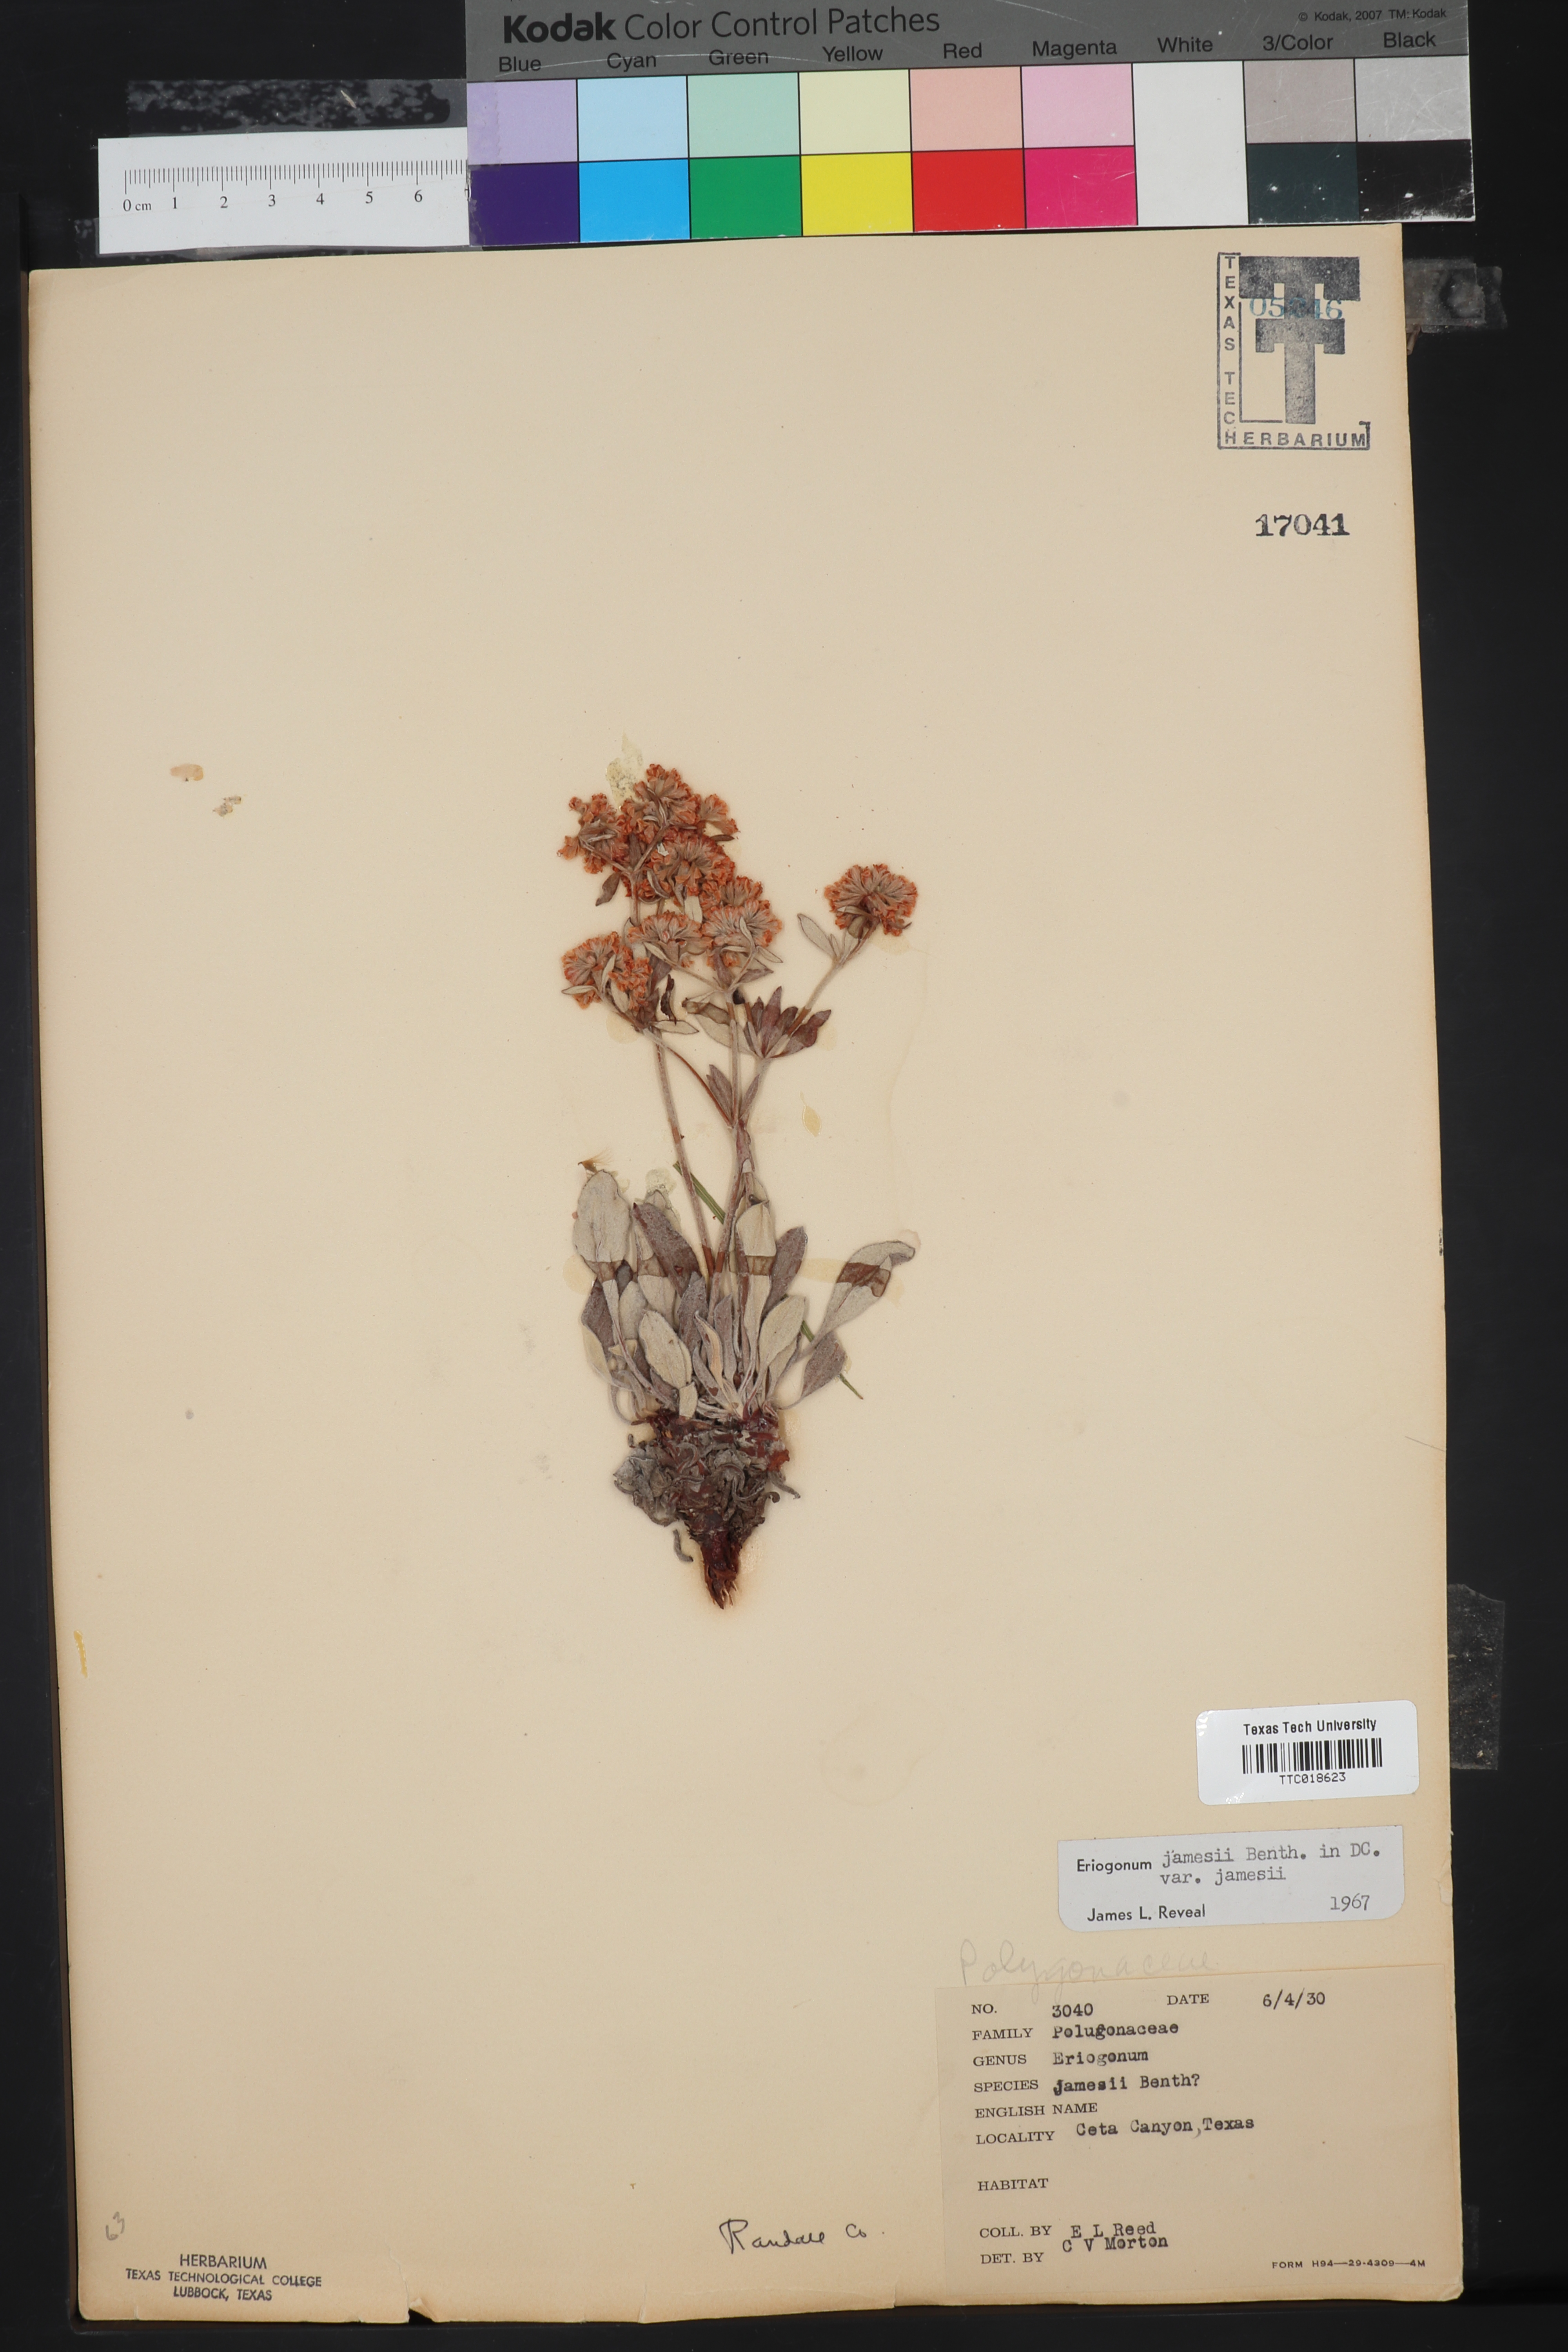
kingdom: Plantae
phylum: Tracheophyta
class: Magnoliopsida
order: Caryophyllales
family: Polygonaceae
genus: Eriogonum
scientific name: Eriogonum jamesii
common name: Antelope-sage
